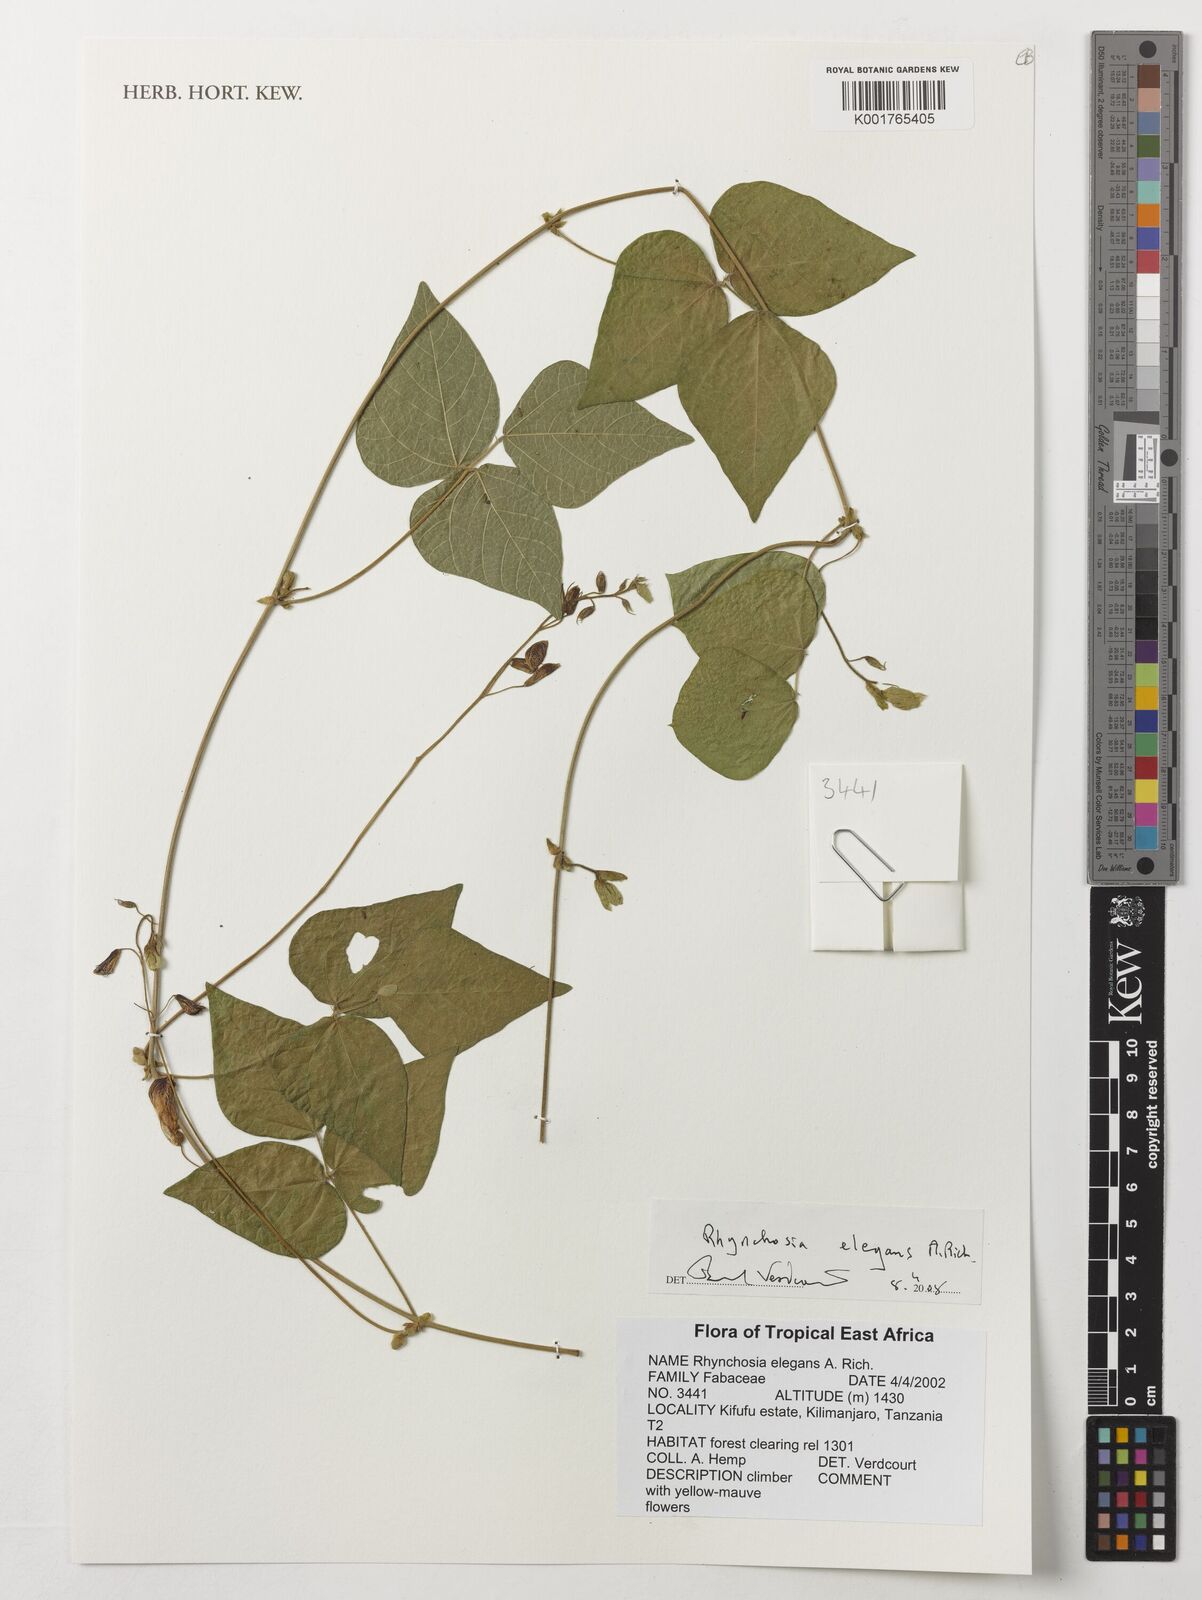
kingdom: Plantae
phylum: Tracheophyta
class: Magnoliopsida
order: Fabales
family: Fabaceae
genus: Rhynchosia
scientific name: Rhynchosia elegans
